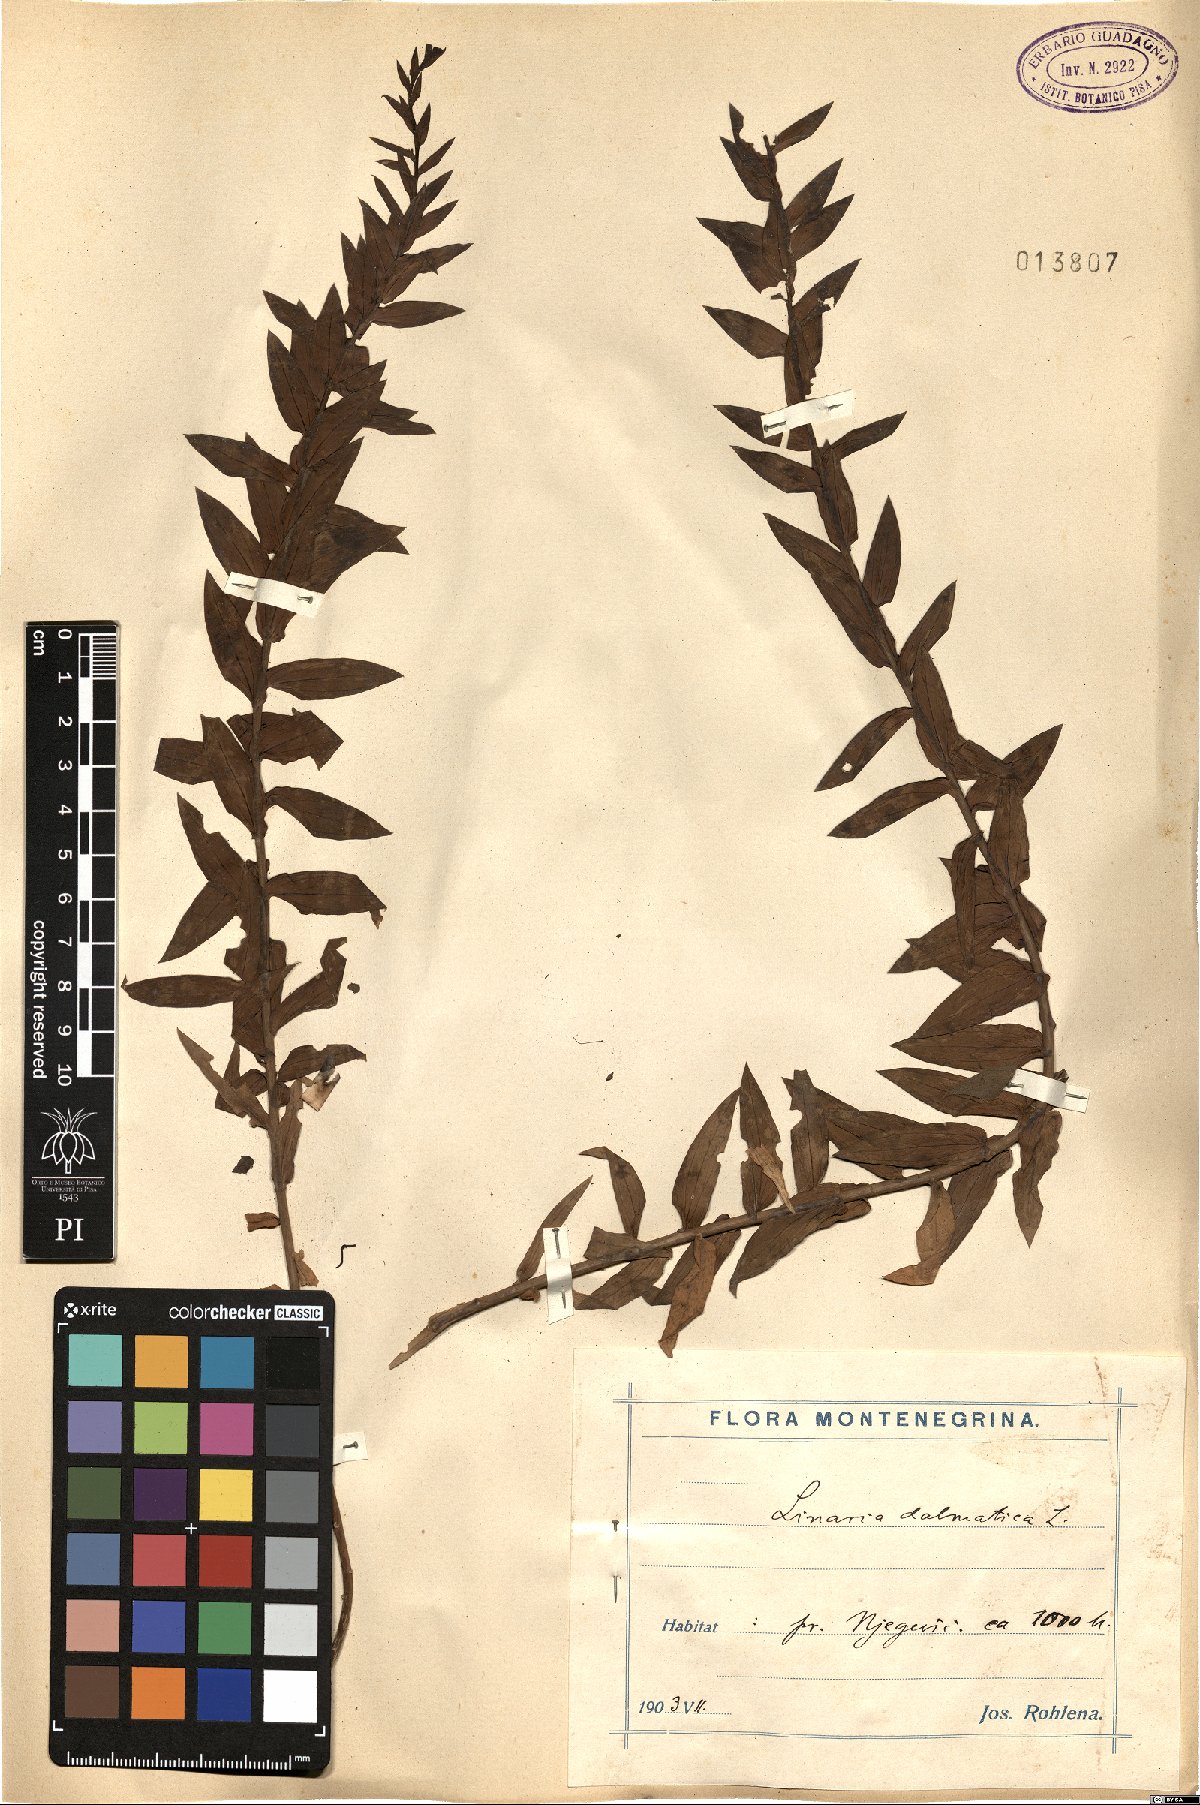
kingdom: Plantae
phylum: Tracheophyta
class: Magnoliopsida
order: Lamiales
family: Plantaginaceae
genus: Linaria
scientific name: Linaria dalmatica
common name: Dalmatian toadflax
